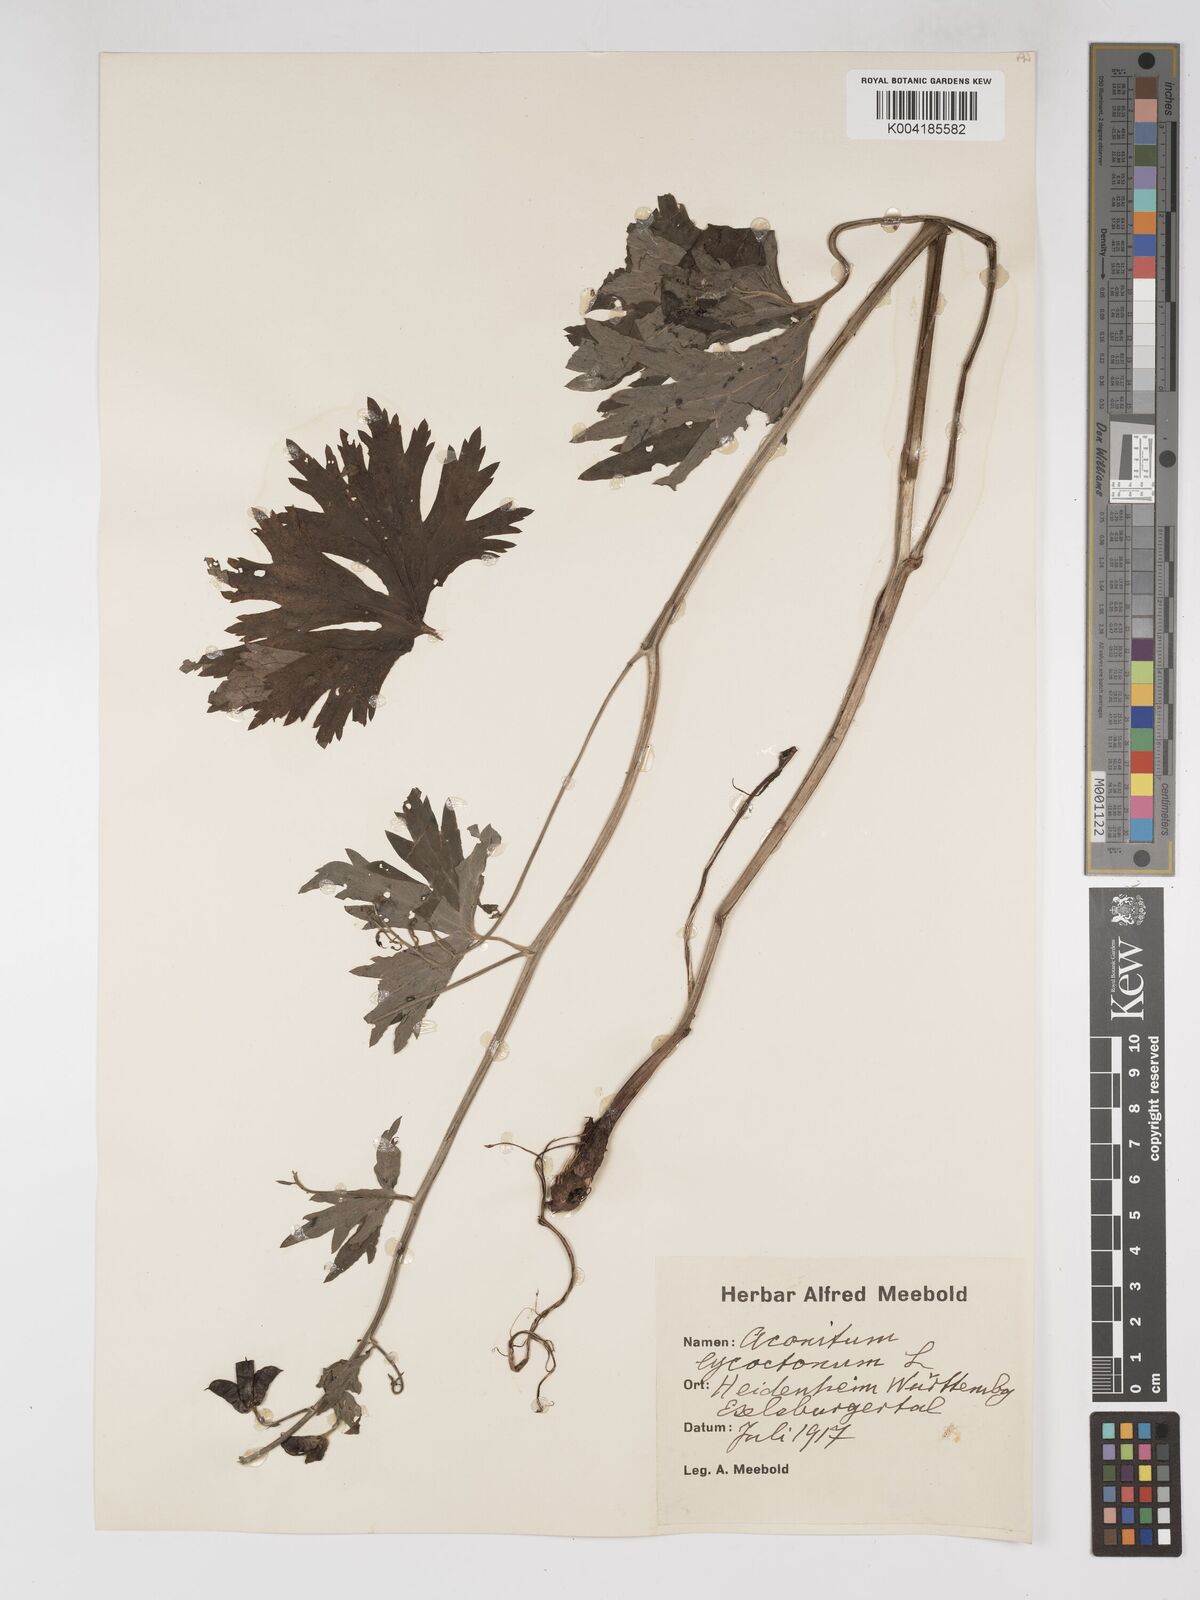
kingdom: Plantae
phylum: Tracheophyta
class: Magnoliopsida
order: Ranunculales
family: Ranunculaceae
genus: Aconitum
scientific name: Aconitum lycoctonum
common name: Wolf's-bane
